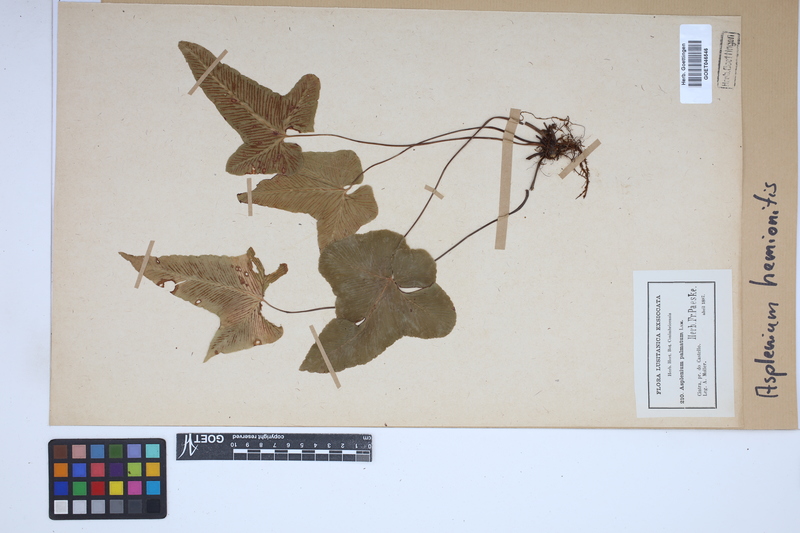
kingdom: Plantae
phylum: Tracheophyta
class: Polypodiopsida
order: Polypodiales
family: Aspleniaceae
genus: Asplenium
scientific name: Asplenium hemionitis
